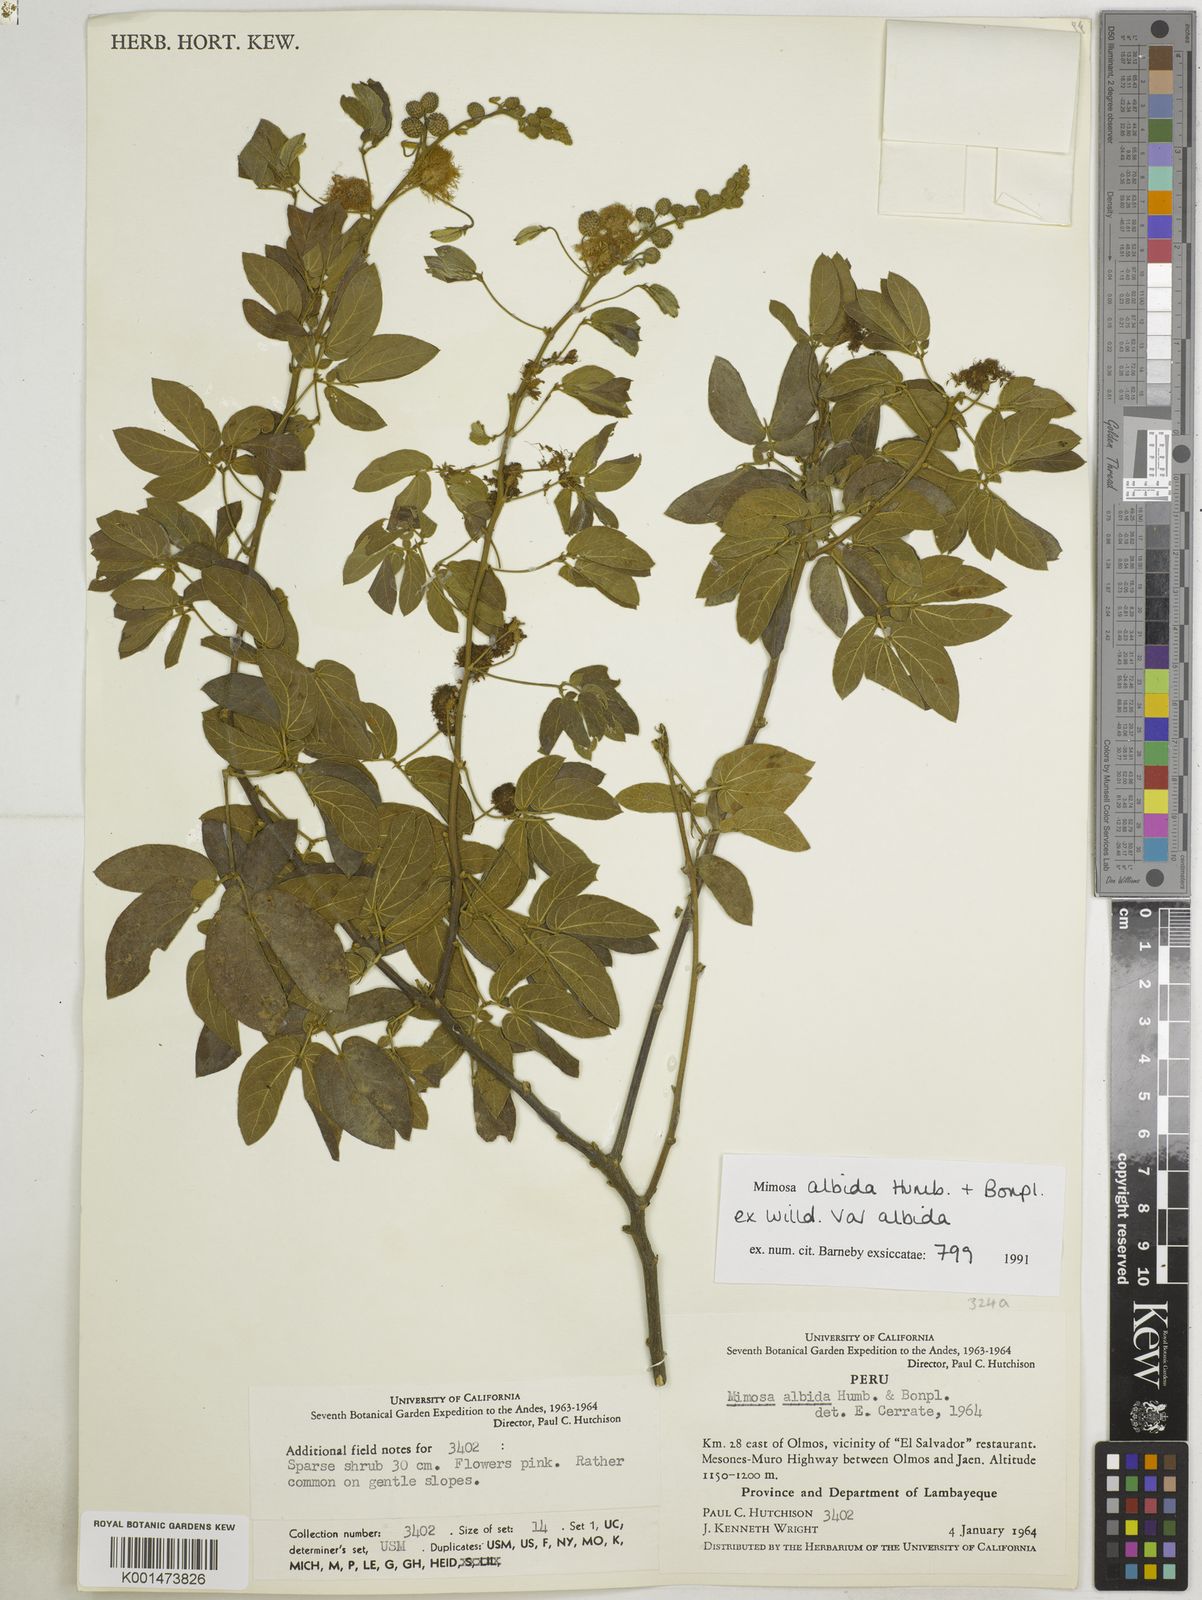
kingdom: Plantae
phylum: Tracheophyta
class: Magnoliopsida
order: Fabales
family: Fabaceae
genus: Mimosa
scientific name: Mimosa albida
